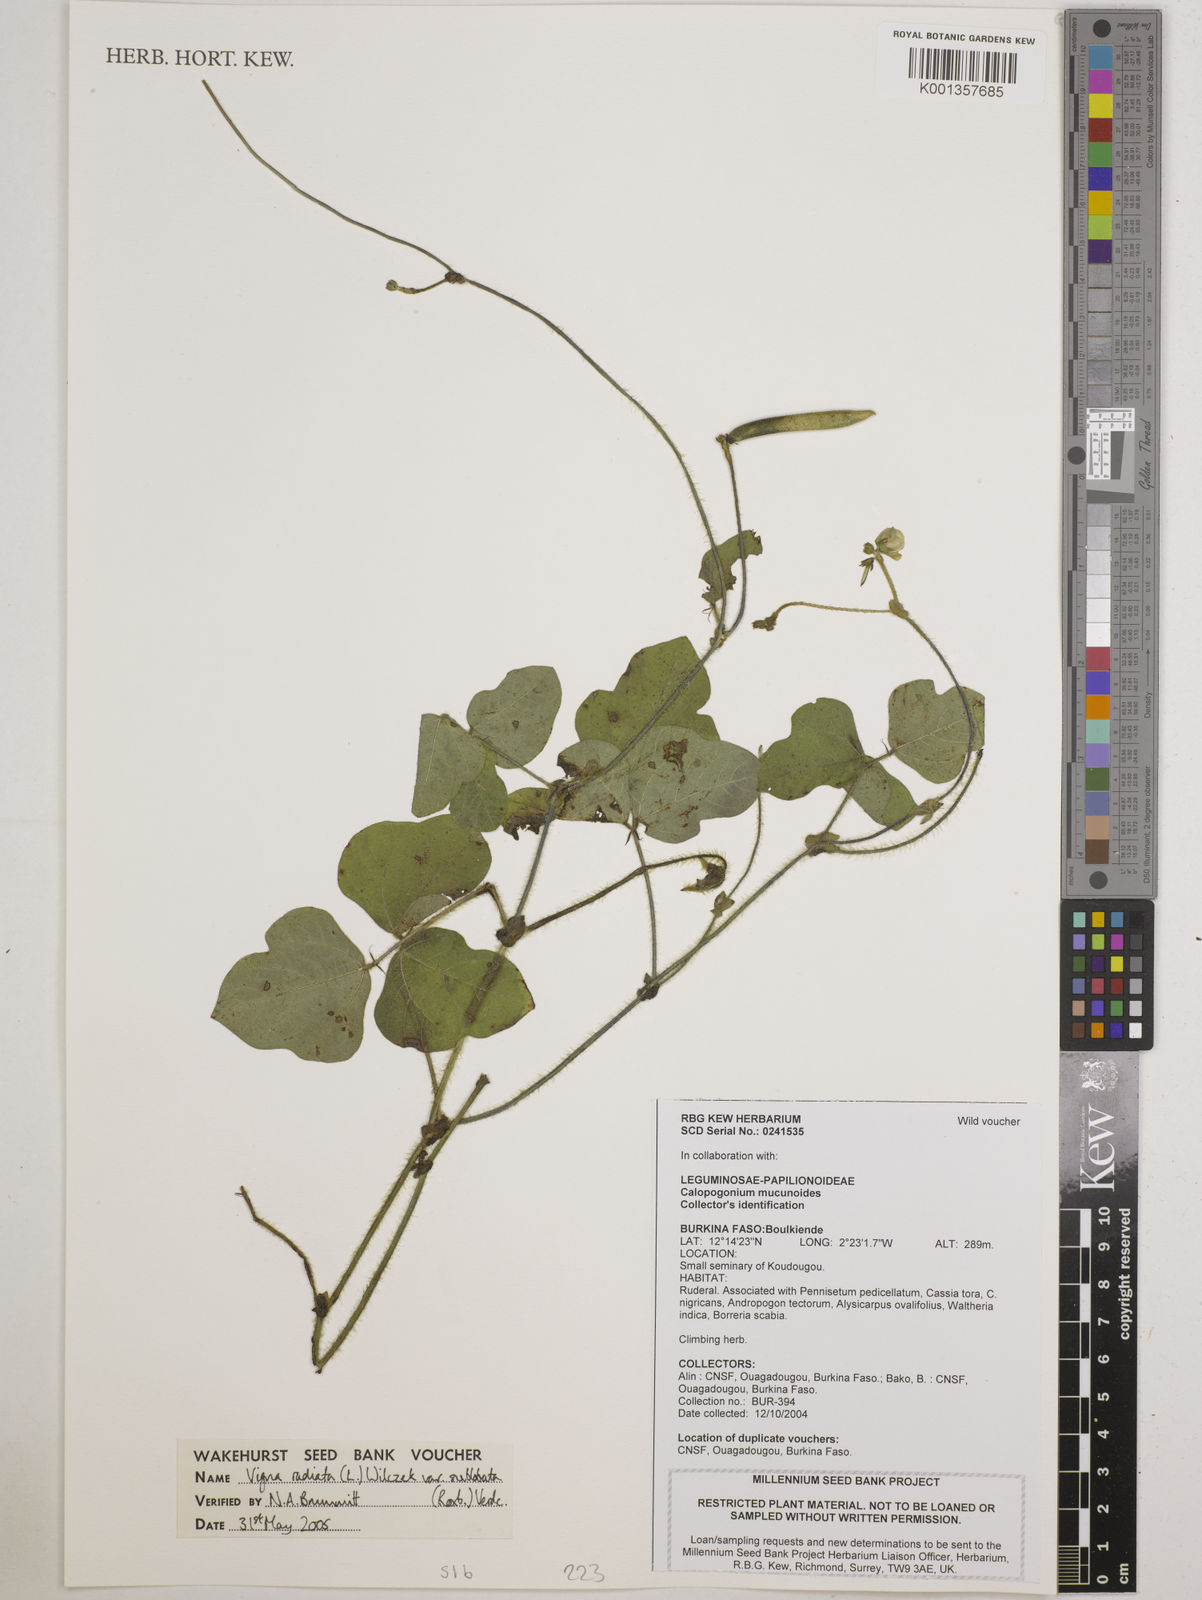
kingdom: Plantae
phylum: Tracheophyta
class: Magnoliopsida
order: Fabales
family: Fabaceae
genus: Vigna
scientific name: Vigna radiata
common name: Mung-bean
